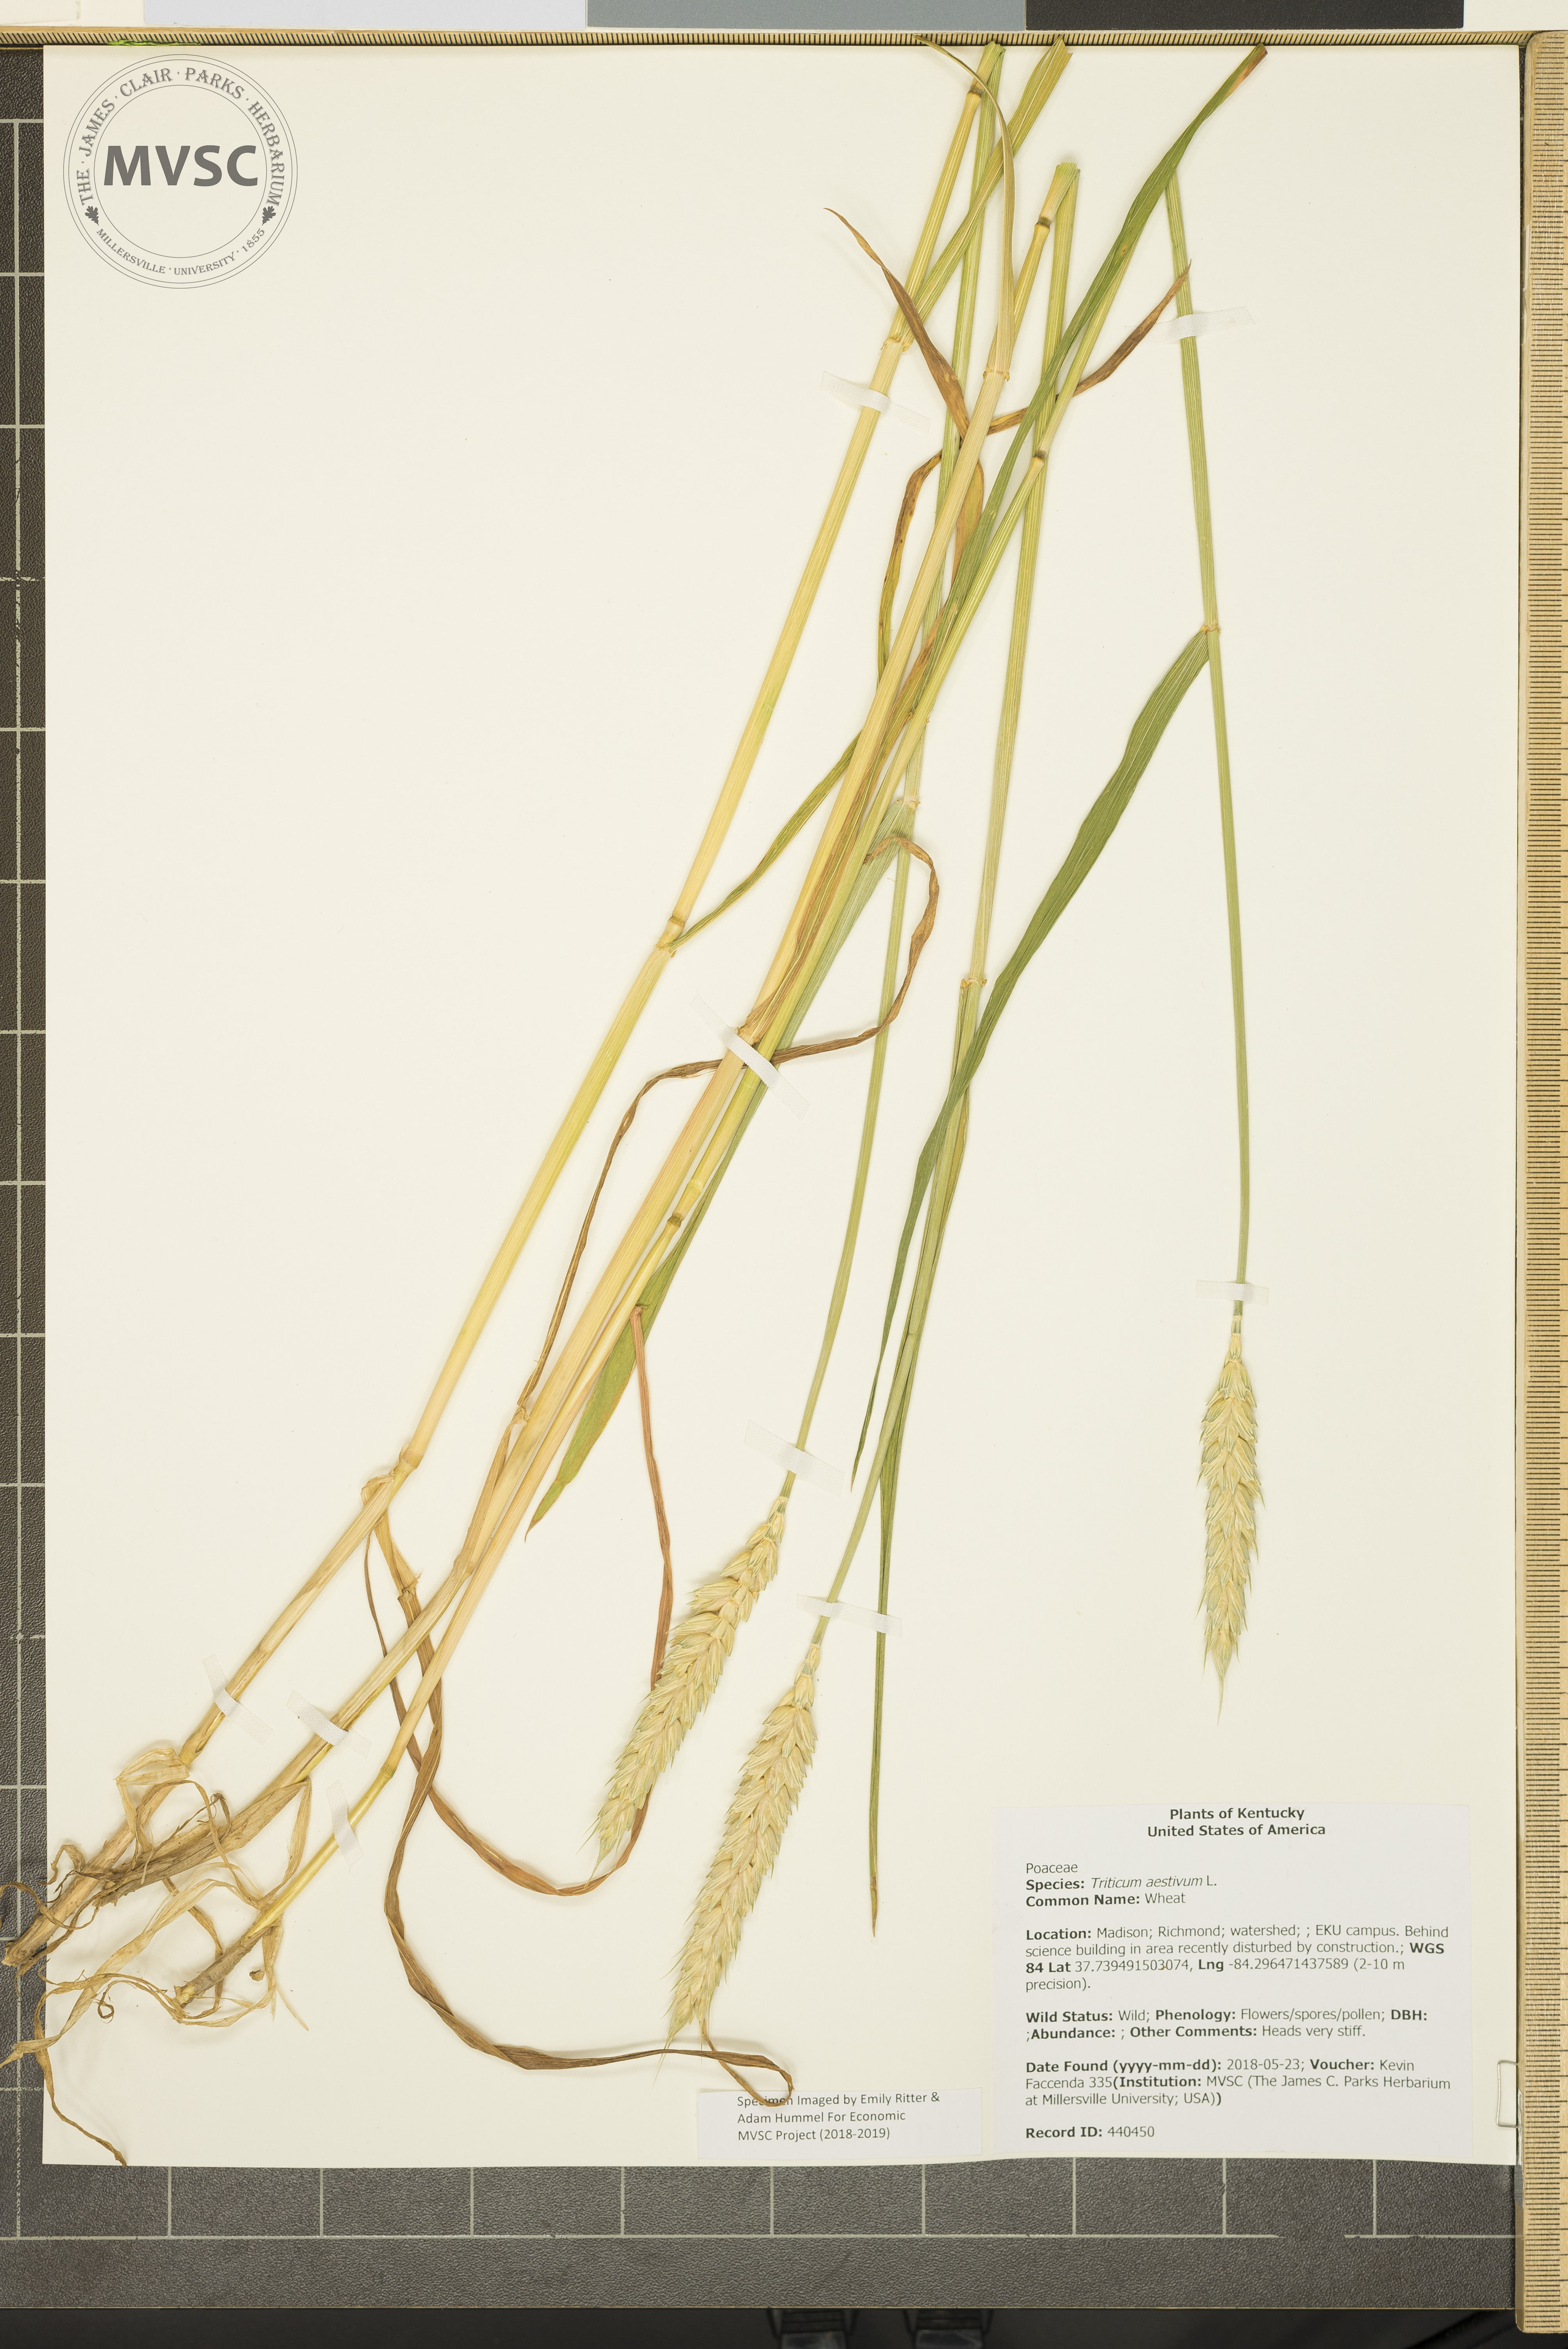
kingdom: Plantae
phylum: Tracheophyta
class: Liliopsida
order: Poales
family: Poaceae
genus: Triticum
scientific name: Triticum aestivum
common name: Wheat
